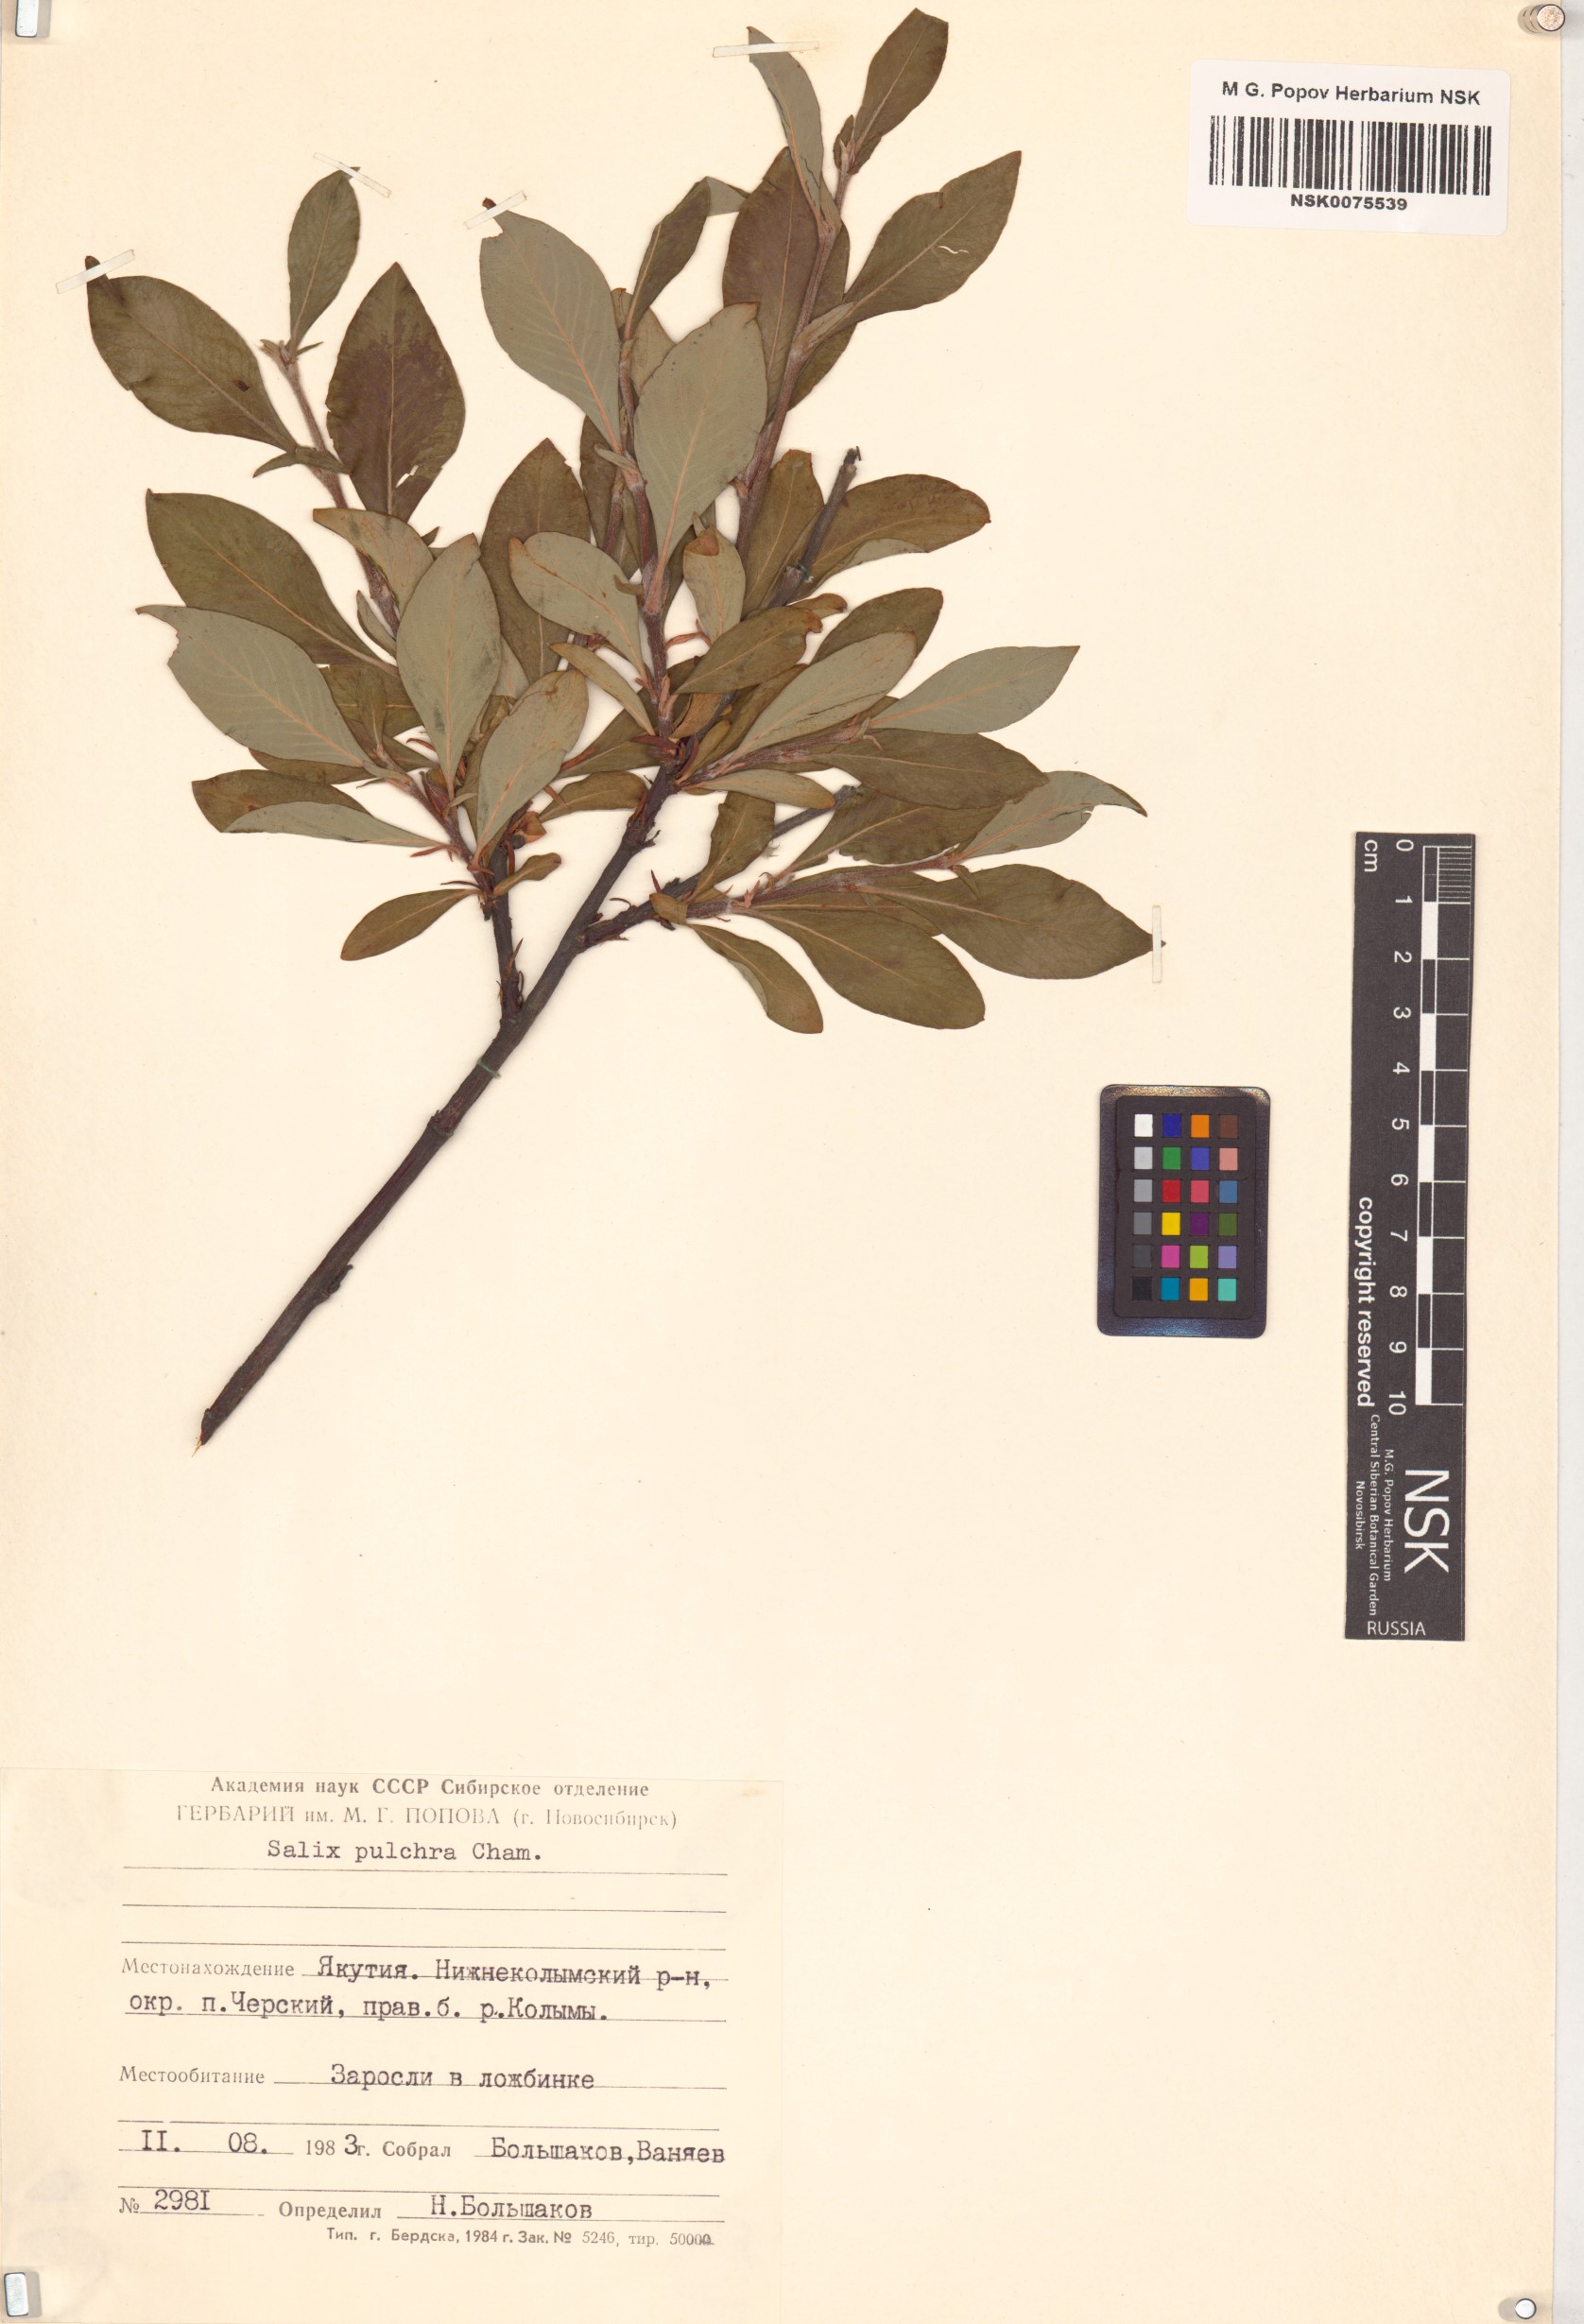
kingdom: Plantae
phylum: Tracheophyta
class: Magnoliopsida
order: Malpighiales
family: Salicaceae
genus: Salix
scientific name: Salix pulchra
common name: Diamond-leaved willow
